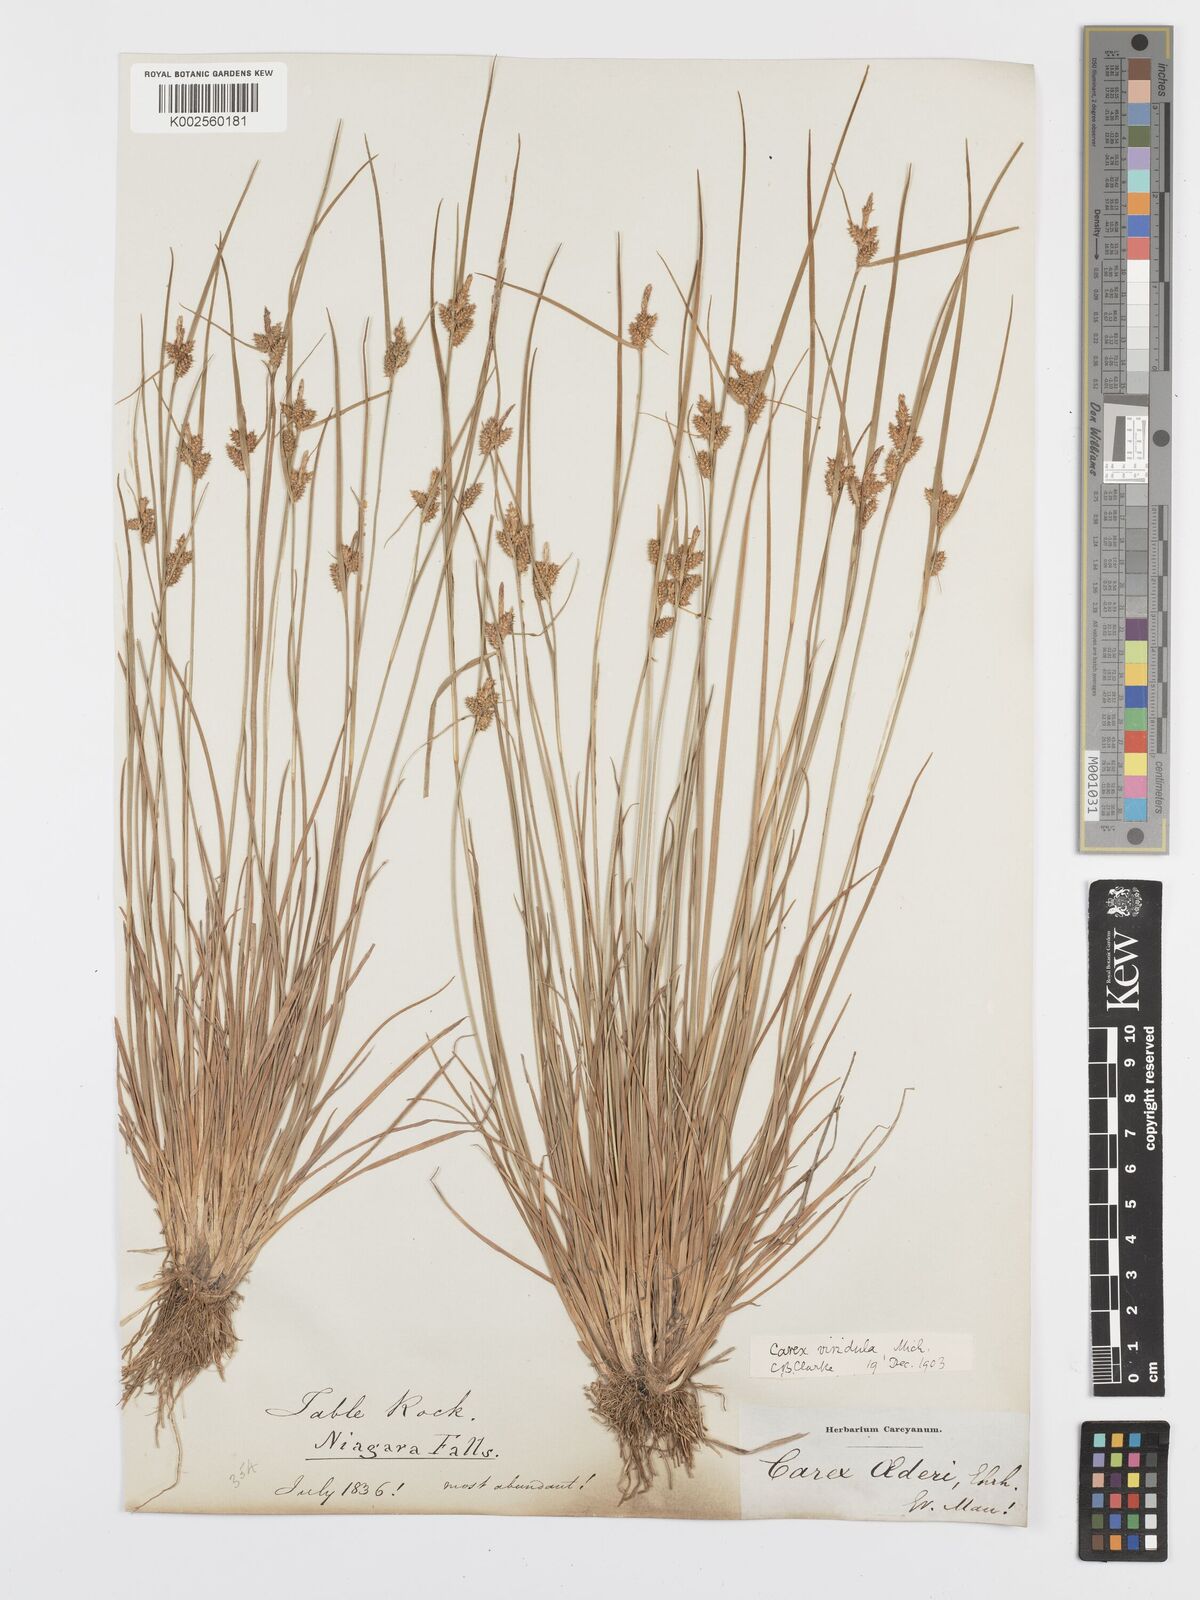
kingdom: Plantae
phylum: Tracheophyta
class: Liliopsida
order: Poales
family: Cyperaceae
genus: Carex
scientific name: Carex oederi
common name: Common & small-fruited yellow-sedge
